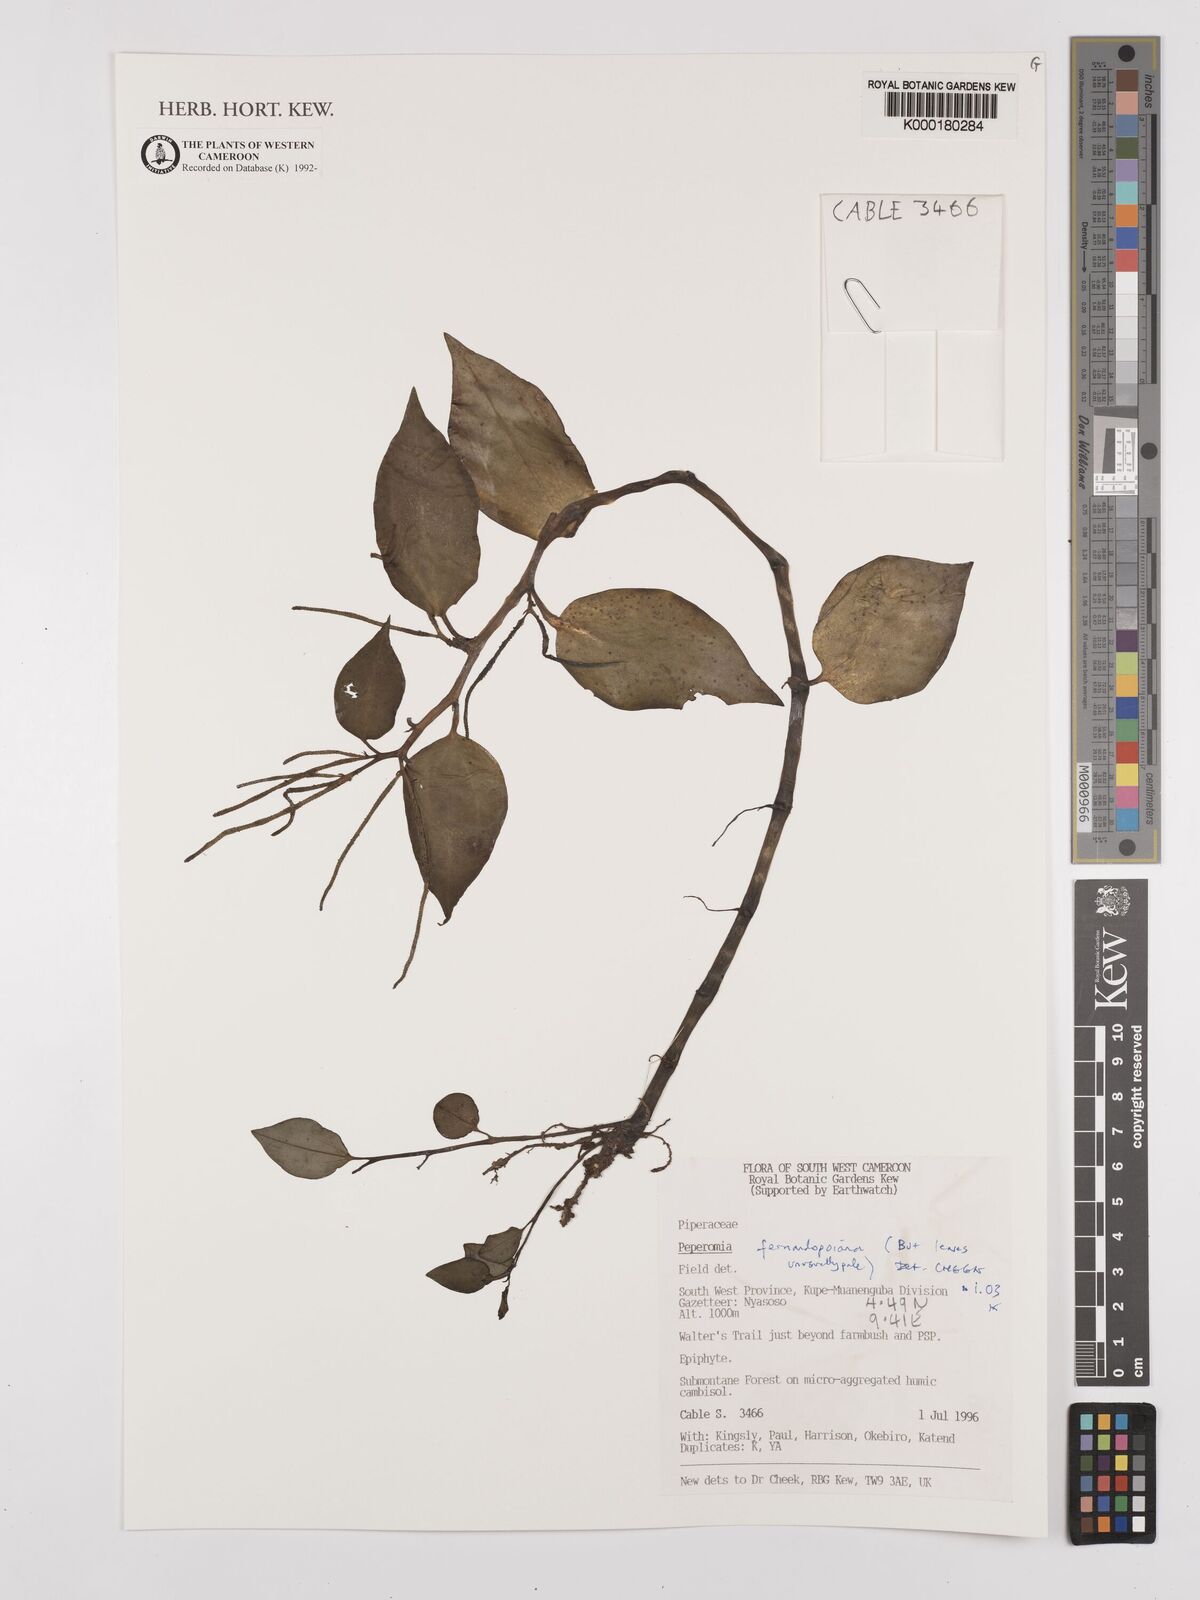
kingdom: Plantae
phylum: Tracheophyta
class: Magnoliopsida
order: Piperales
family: Piperaceae
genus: Peperomia
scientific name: Peperomia fernandopoiana
